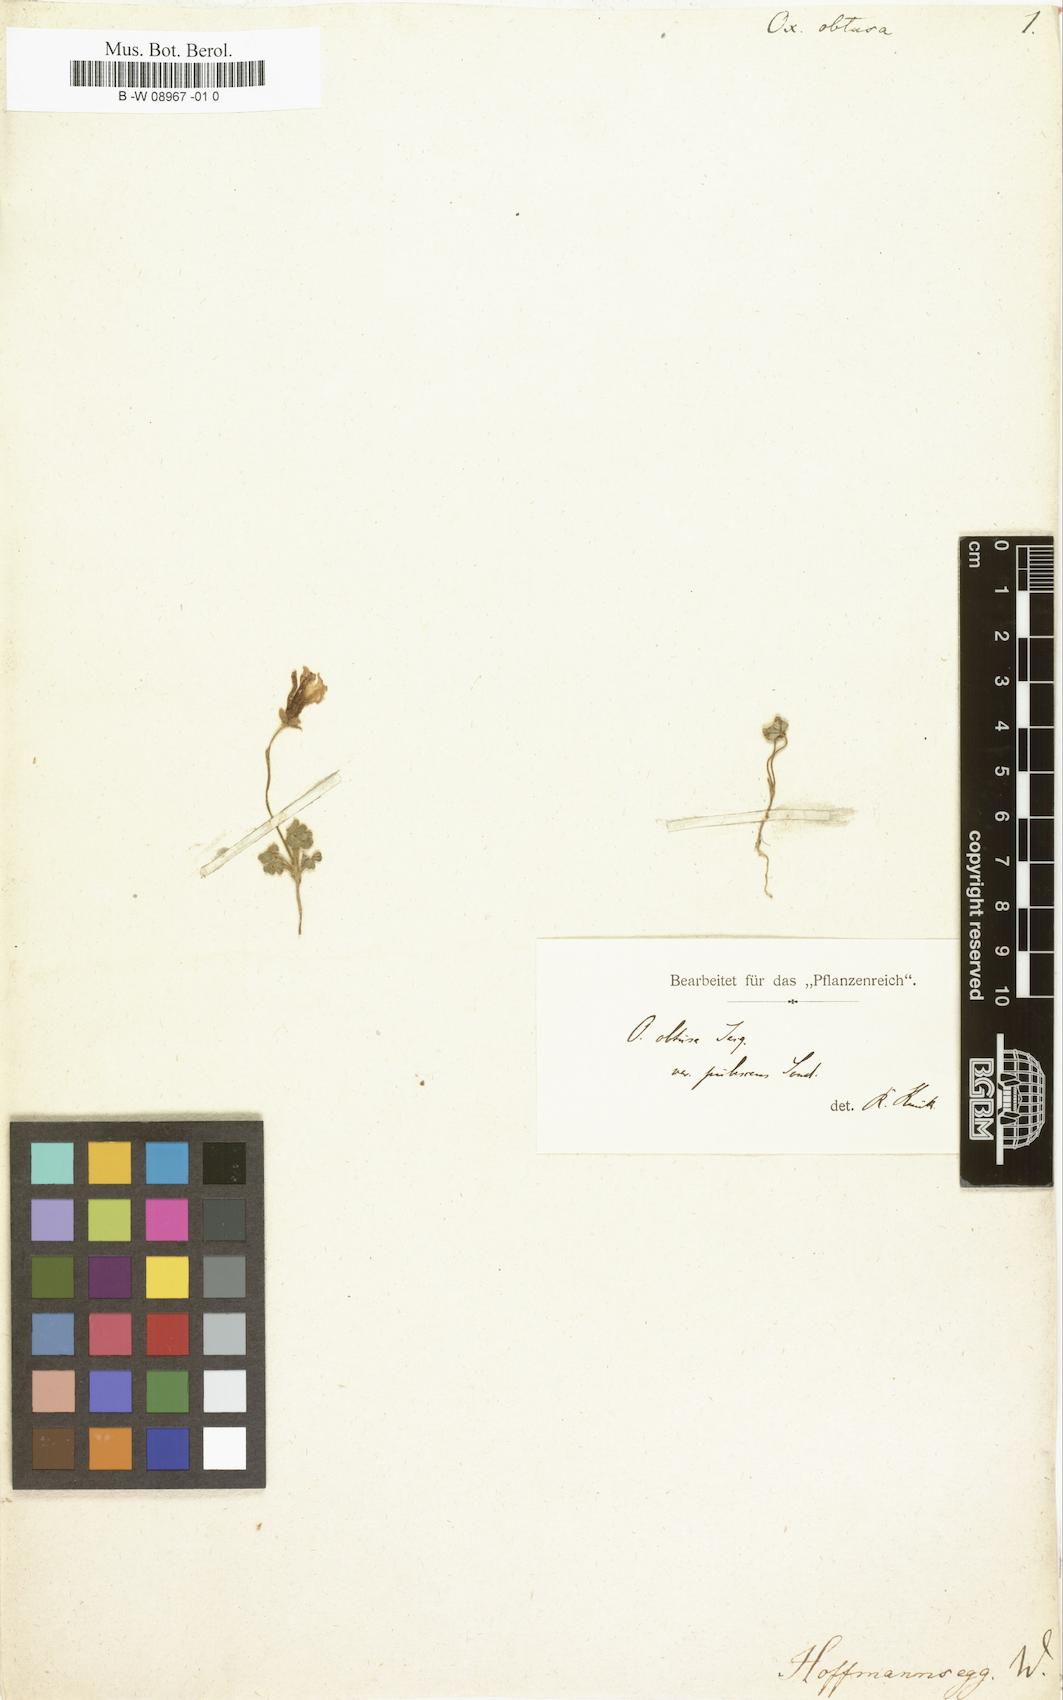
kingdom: Plantae
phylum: Tracheophyta
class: Magnoliopsida
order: Oxalidales
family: Oxalidaceae
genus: Oxalis
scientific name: Oxalis obtusa
